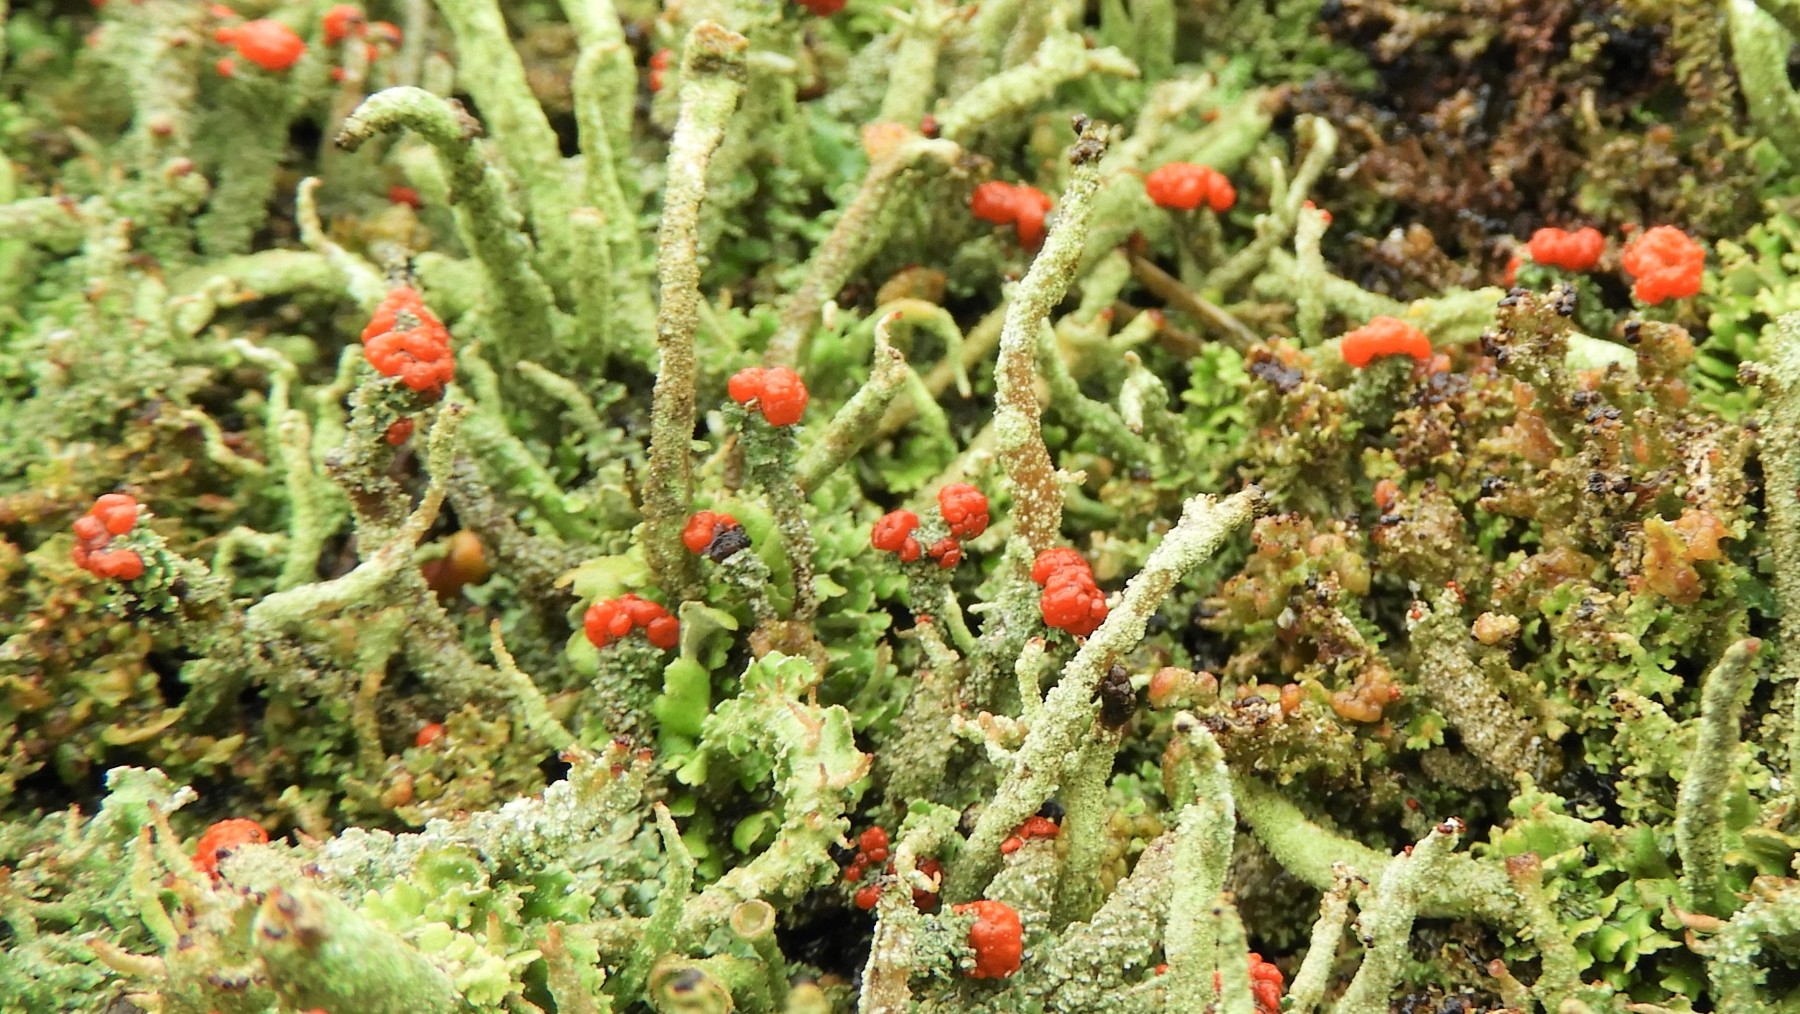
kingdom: Fungi
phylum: Ascomycota
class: Lecanoromycetes
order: Lecanorales
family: Cladoniaceae
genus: Cladonia
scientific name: Cladonia floerkeana
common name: lakrød bægerlav
